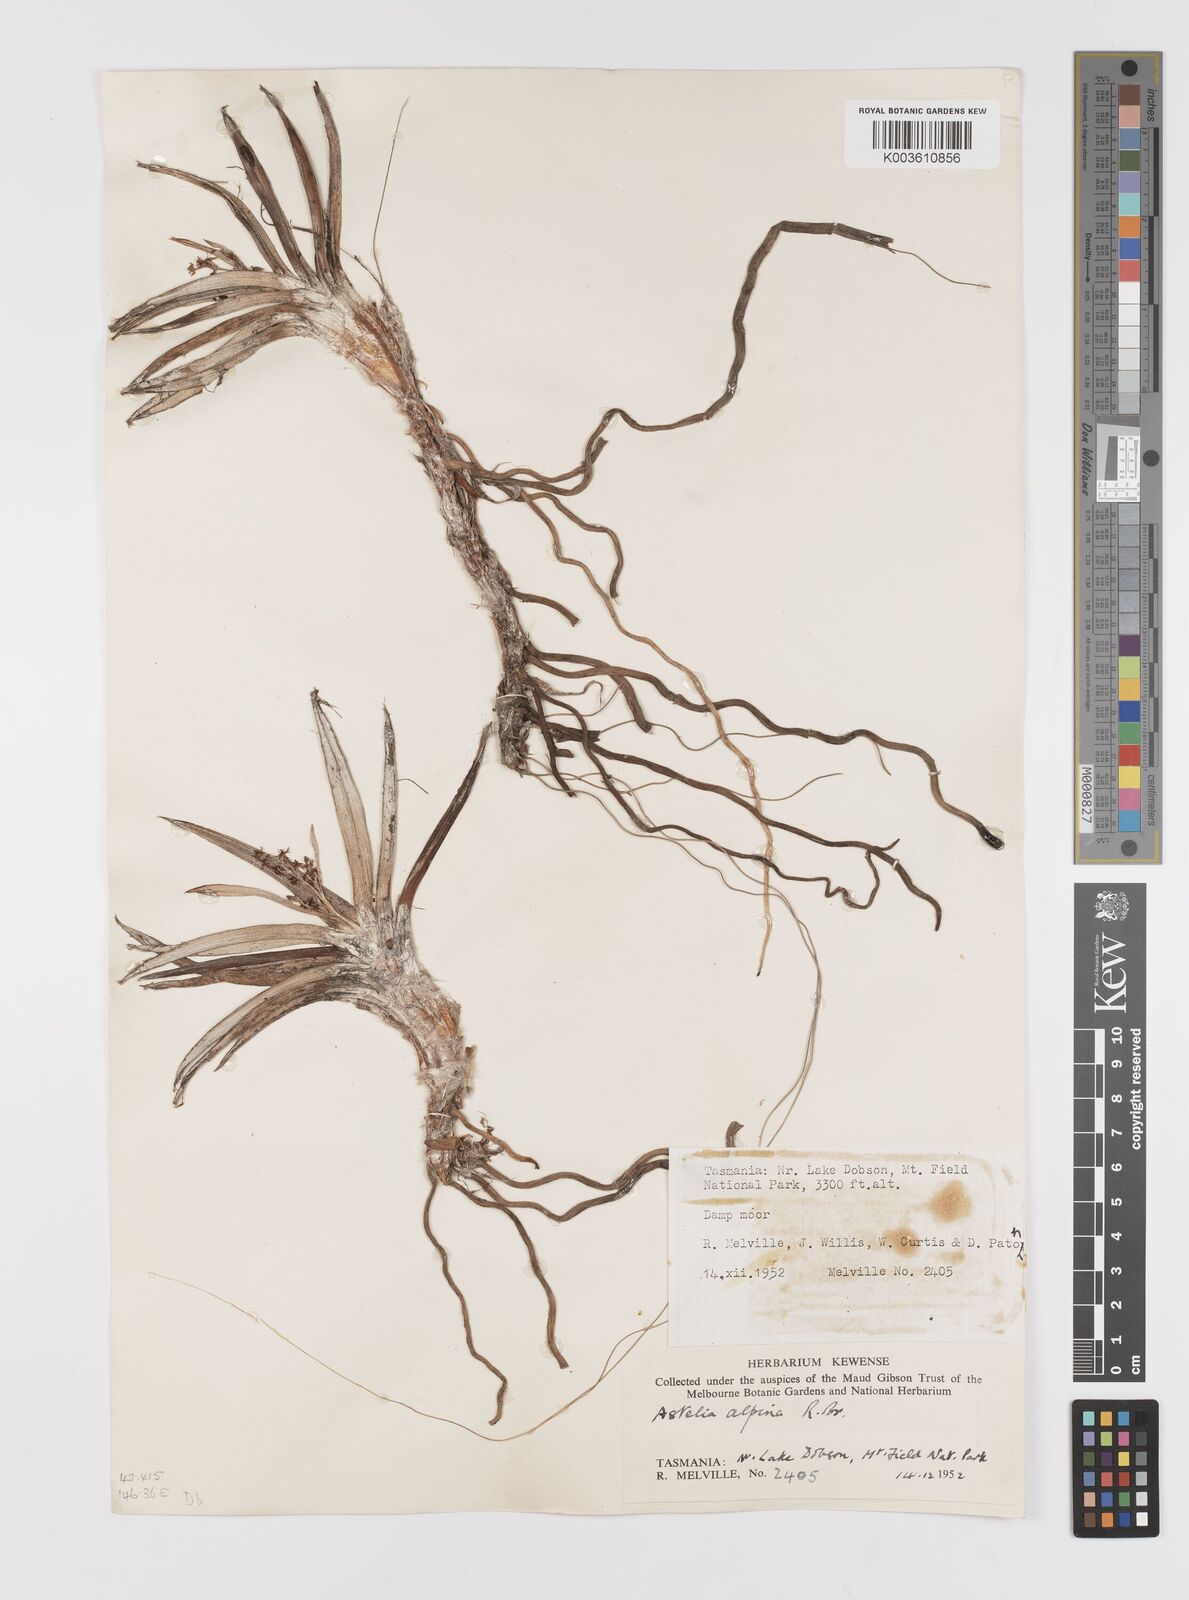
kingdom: Plantae
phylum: Tracheophyta
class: Liliopsida
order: Asparagales
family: Asteliaceae
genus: Astelia
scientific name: Astelia alpina
